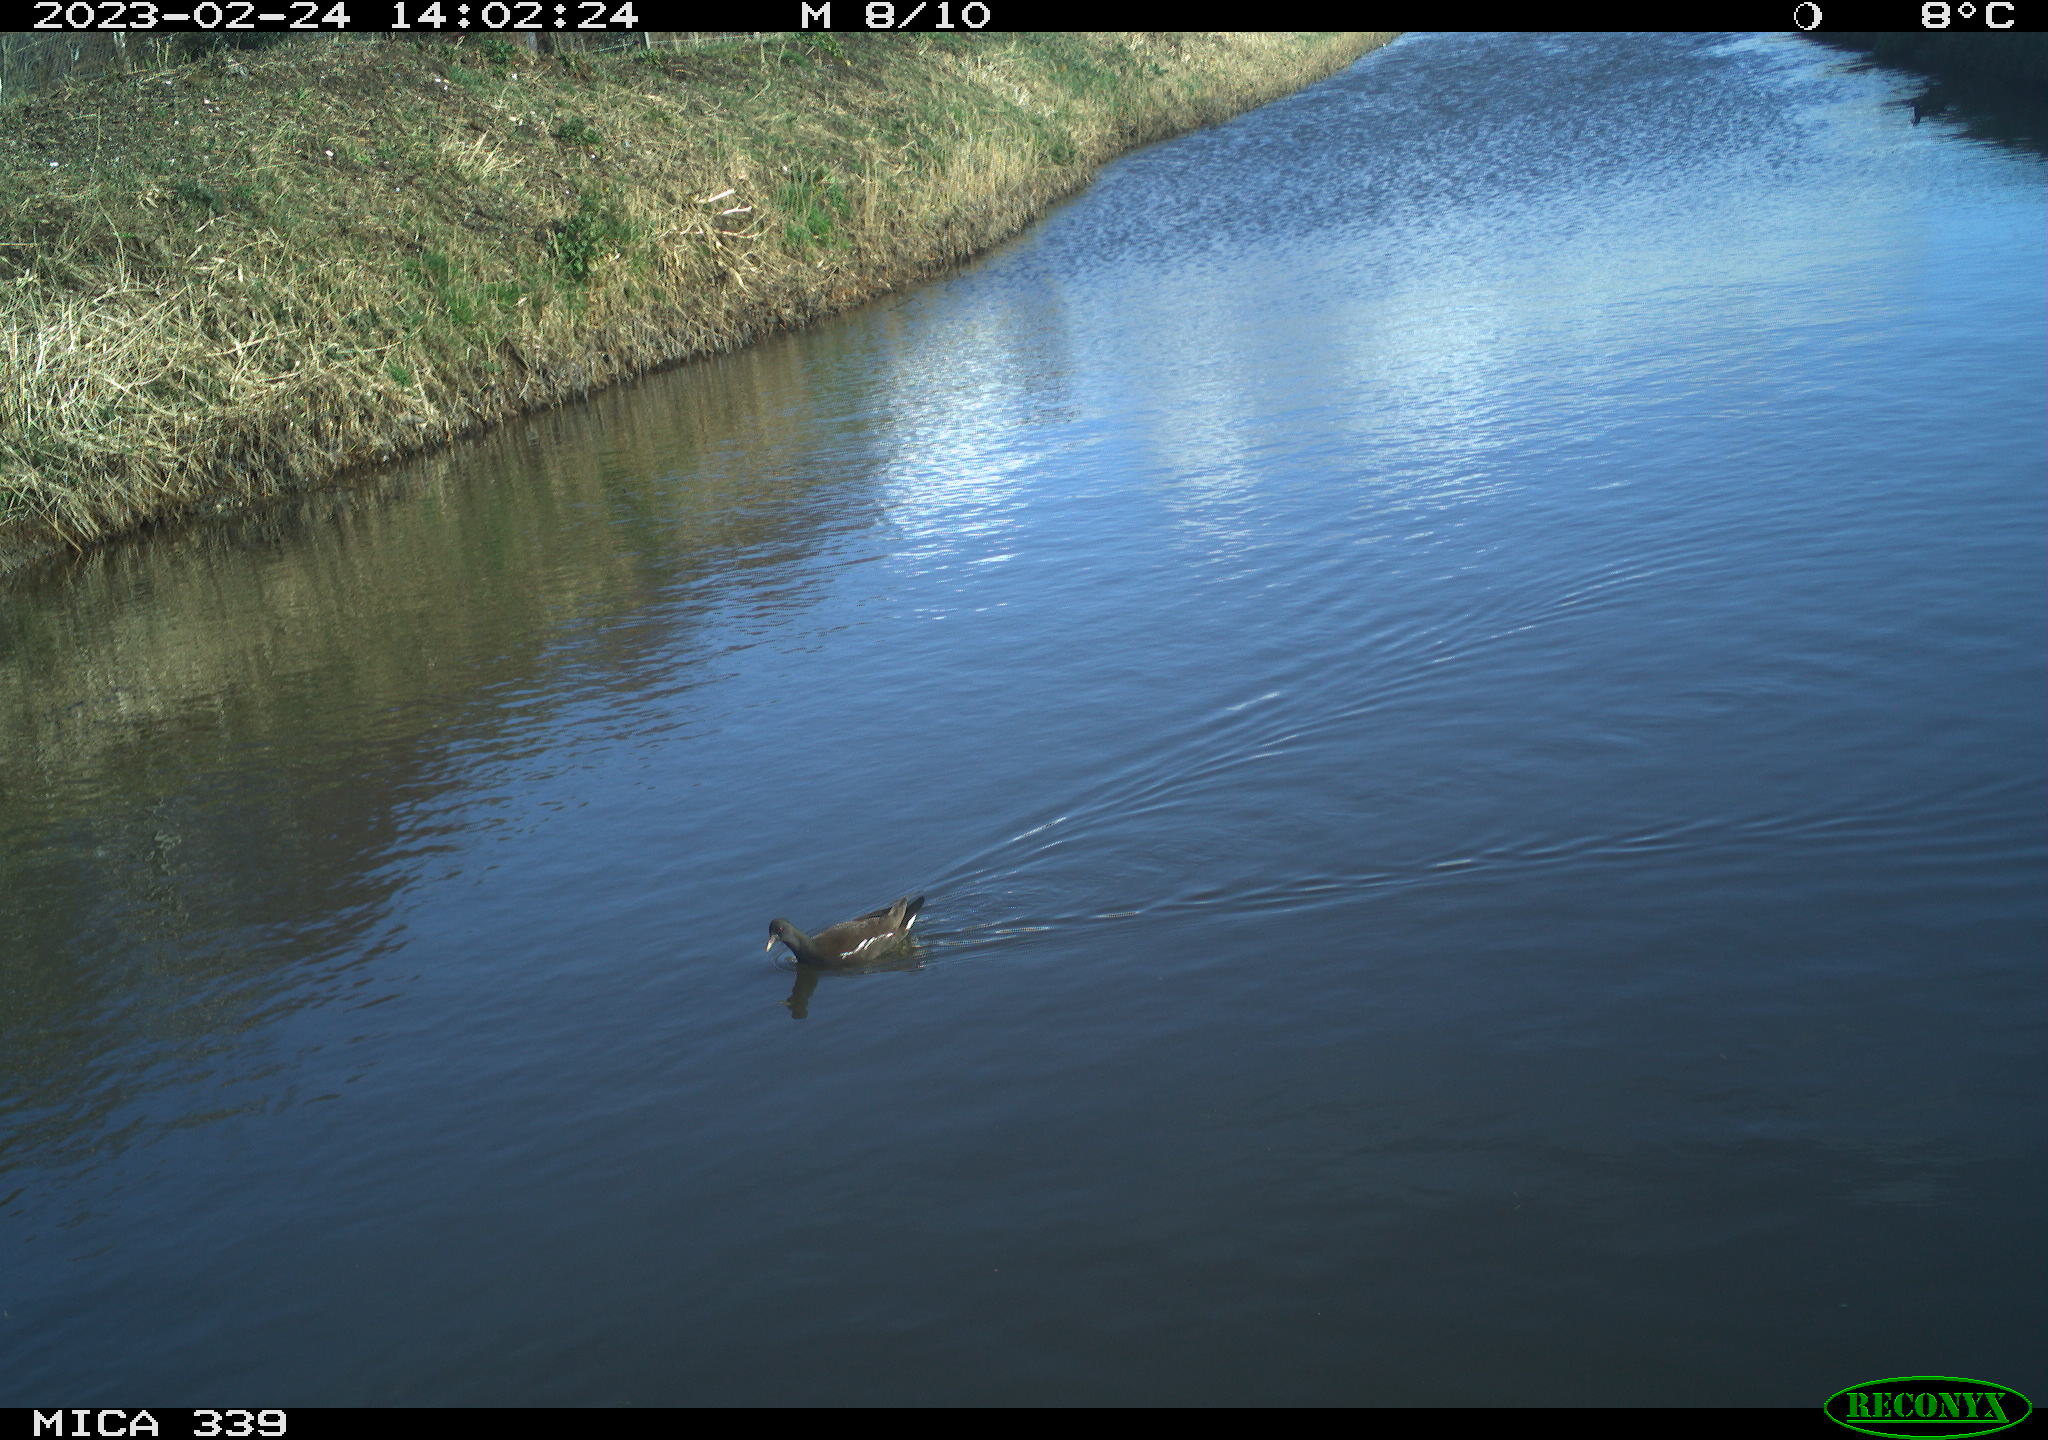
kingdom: Animalia
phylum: Chordata
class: Aves
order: Gruiformes
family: Rallidae
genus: Gallinula
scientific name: Gallinula chloropus
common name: Common moorhen
